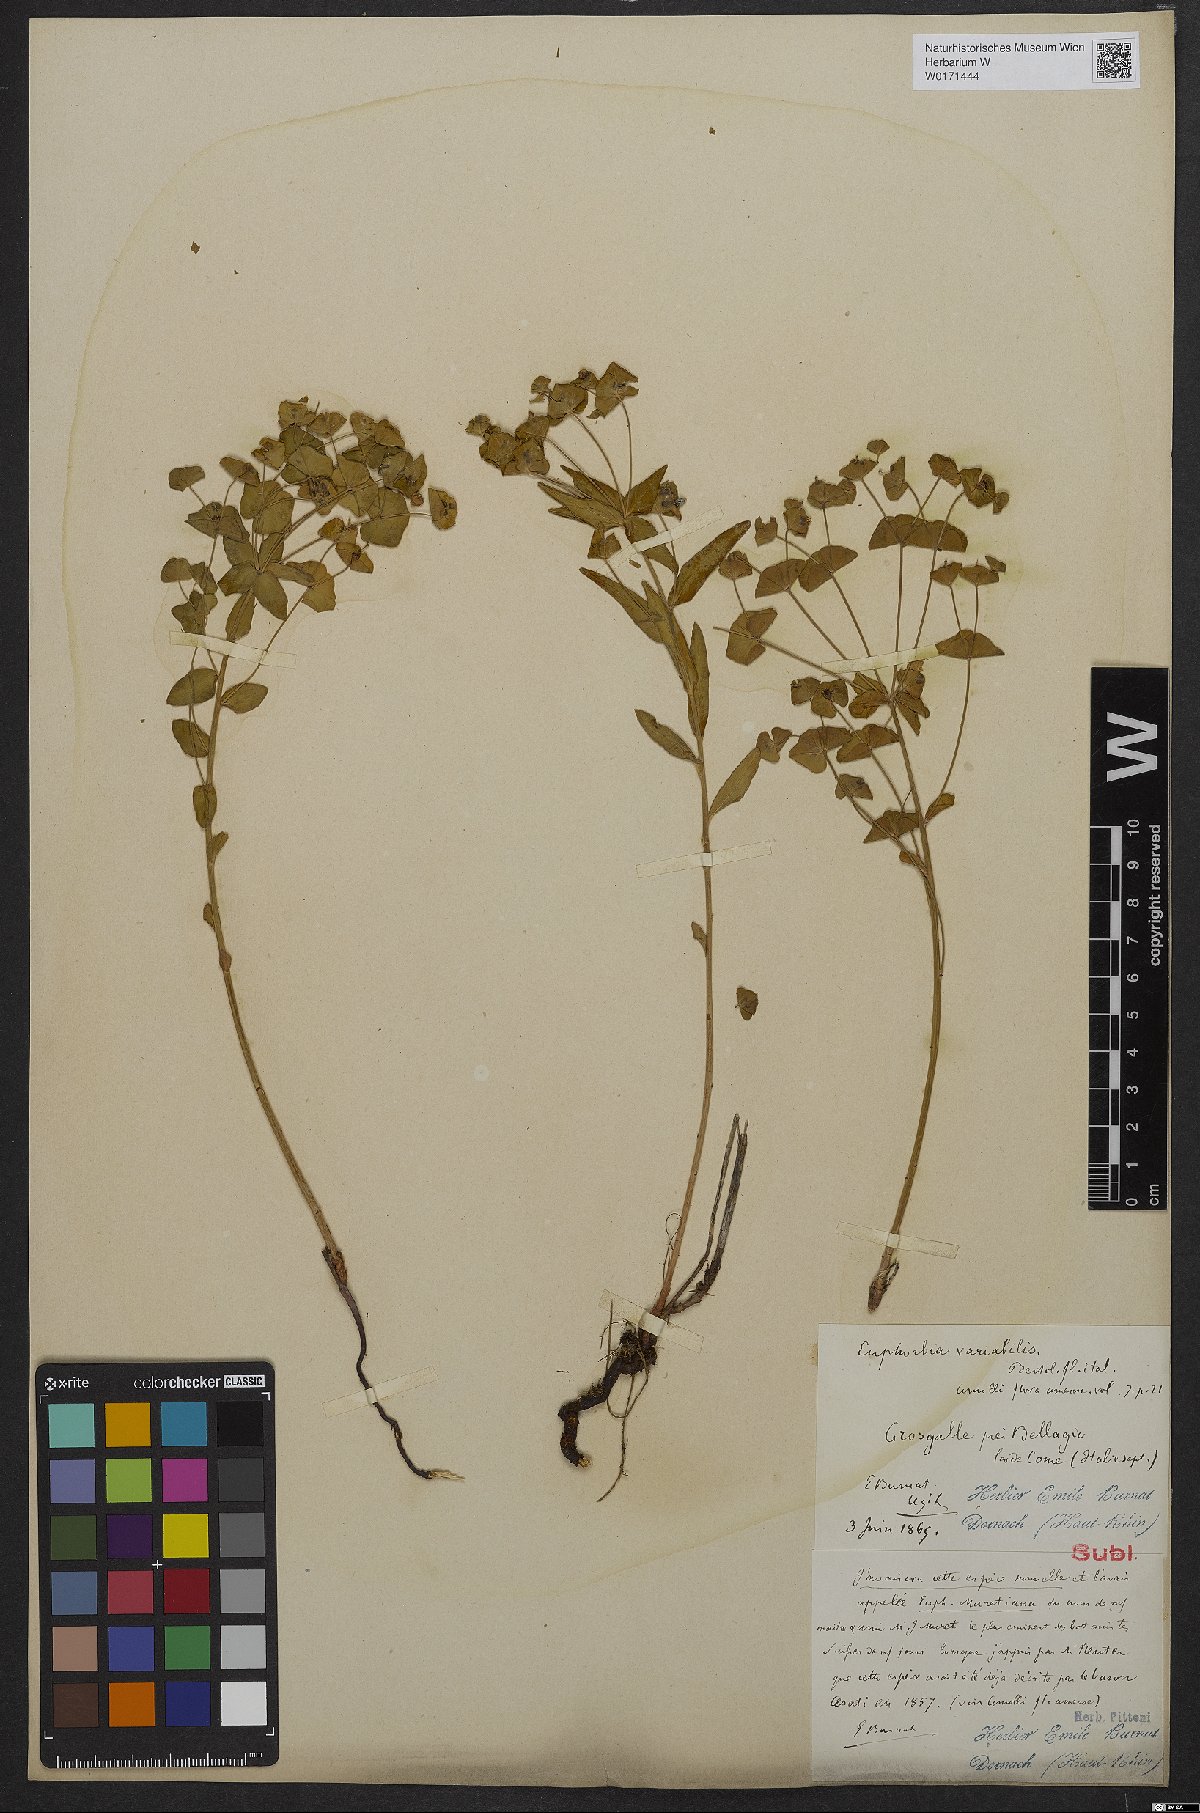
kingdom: Plantae
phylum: Tracheophyta
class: Magnoliopsida
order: Malpighiales
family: Euphorbiaceae
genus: Euphorbia
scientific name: Euphorbia variabilis
